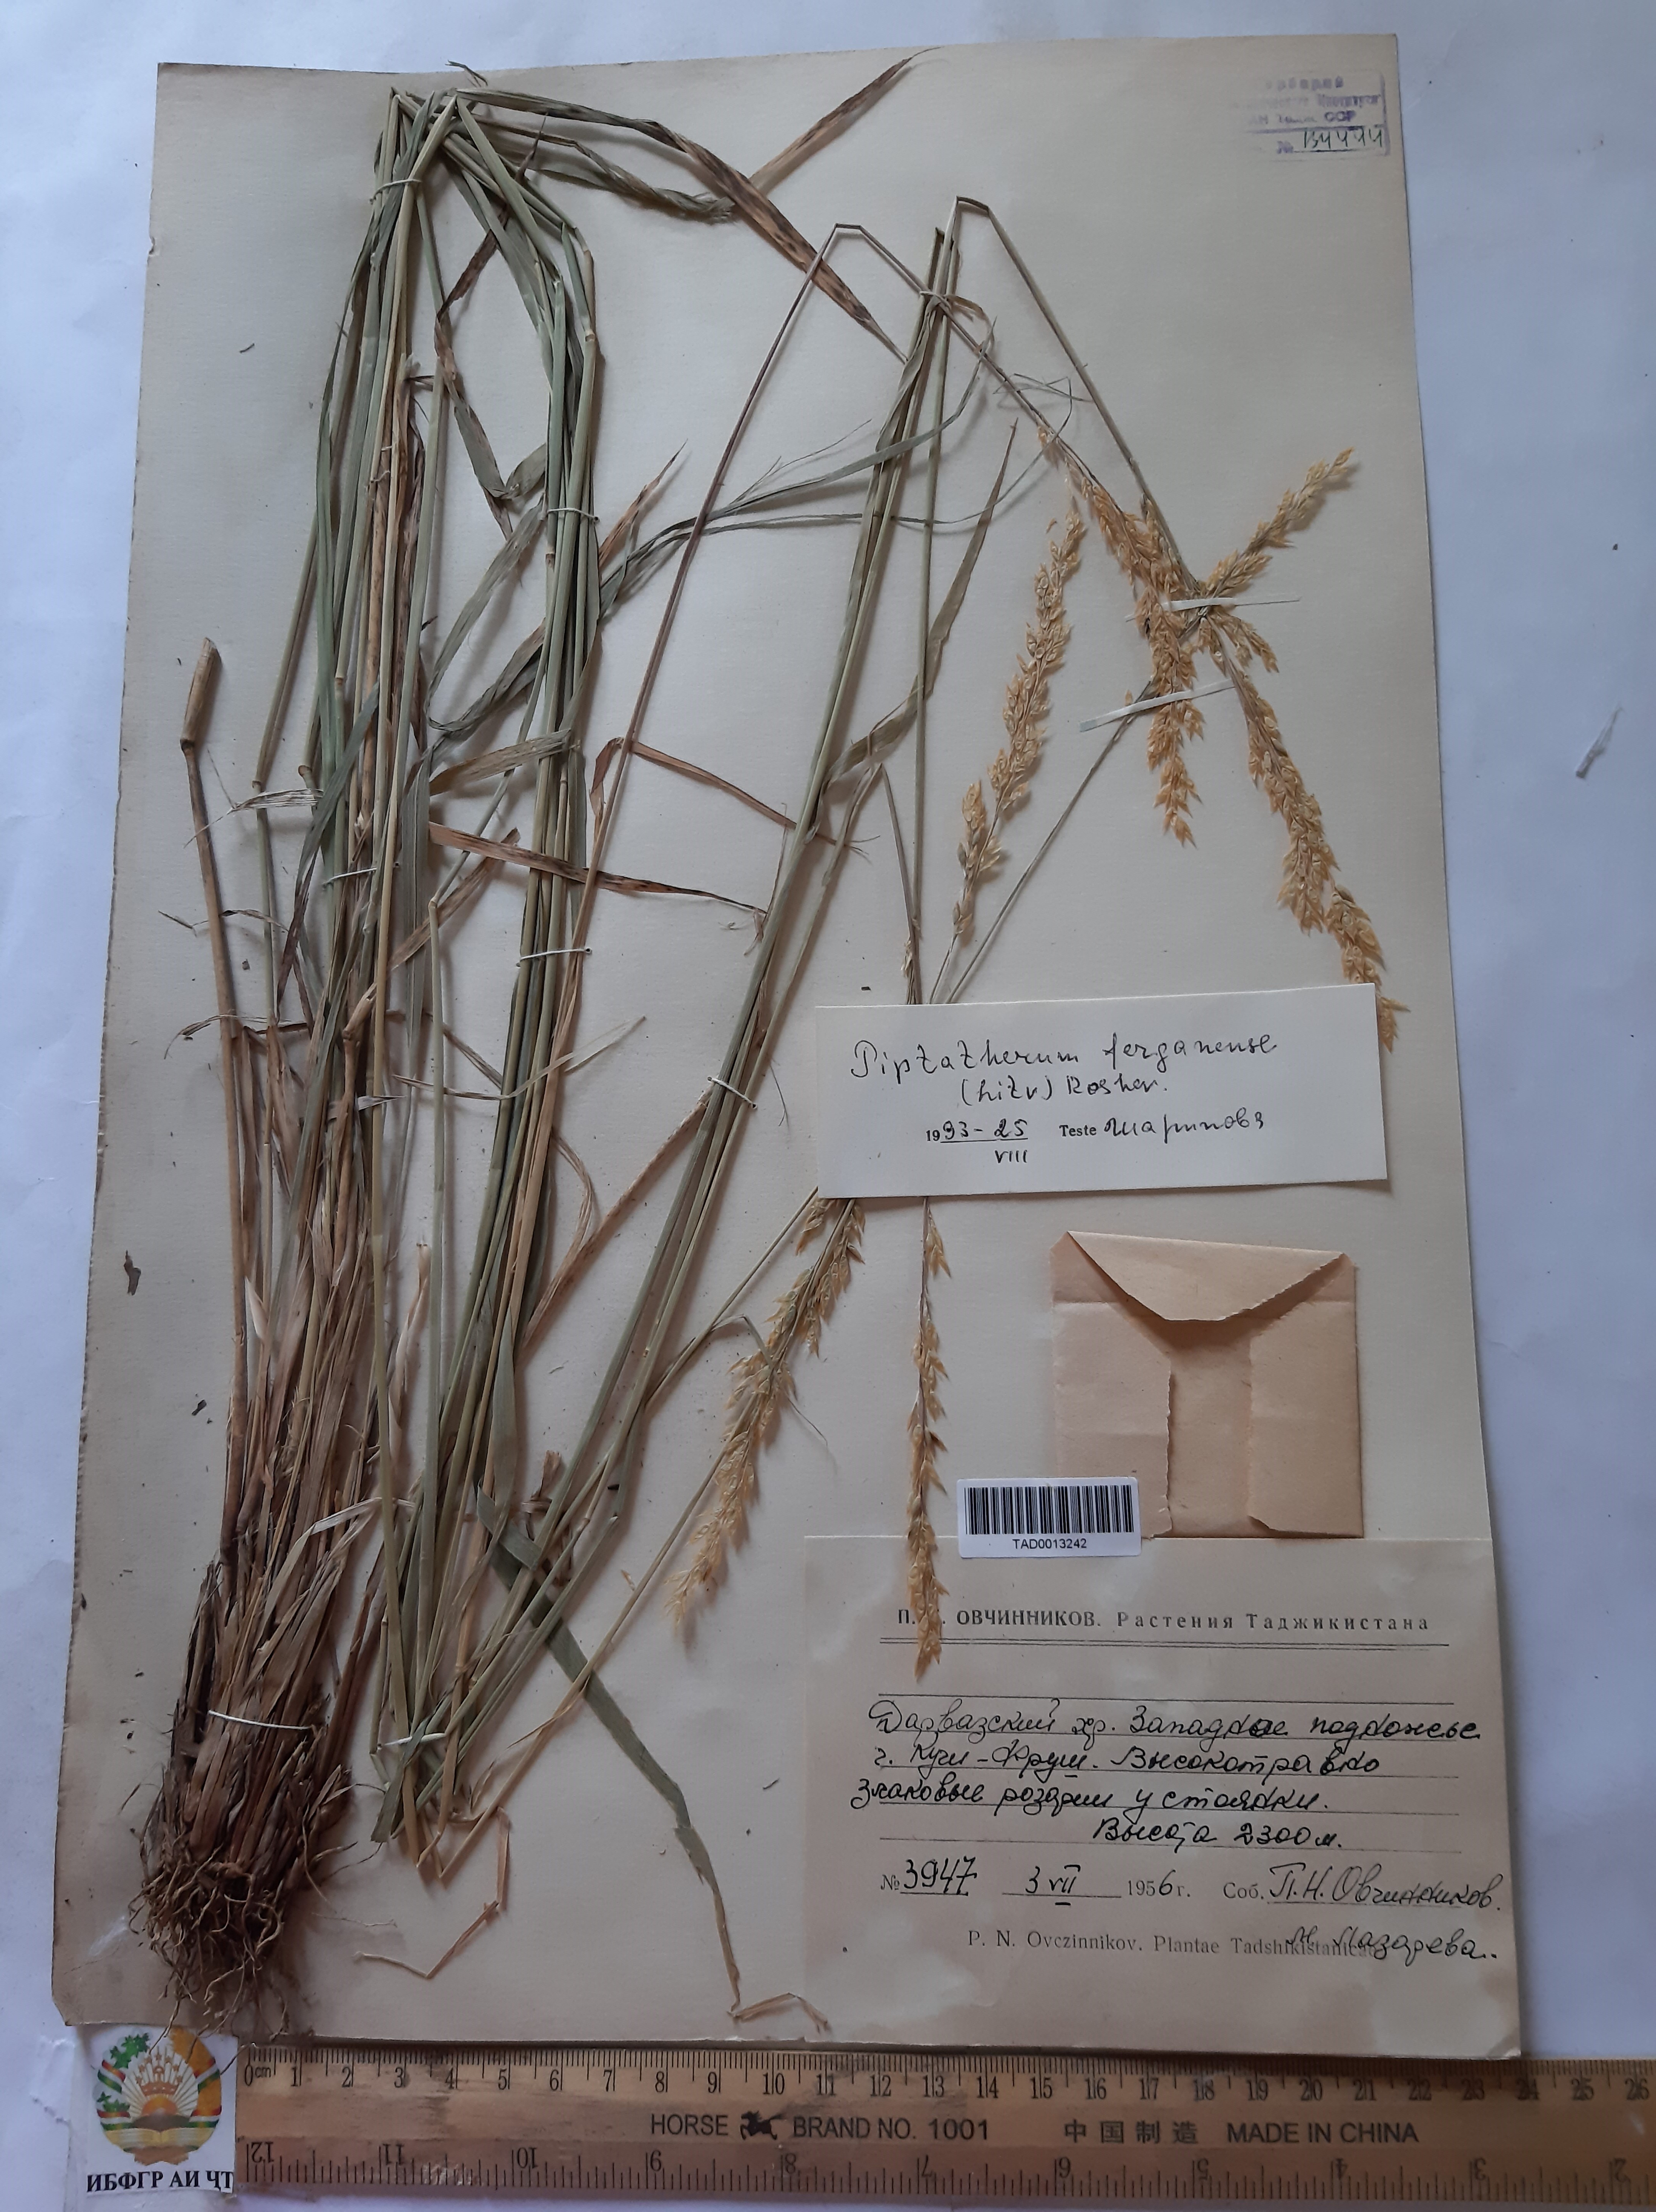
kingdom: Plantae
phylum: Tracheophyta
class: Liliopsida
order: Poales
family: Poaceae
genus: Piptatherum
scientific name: Piptatherum ferganense
